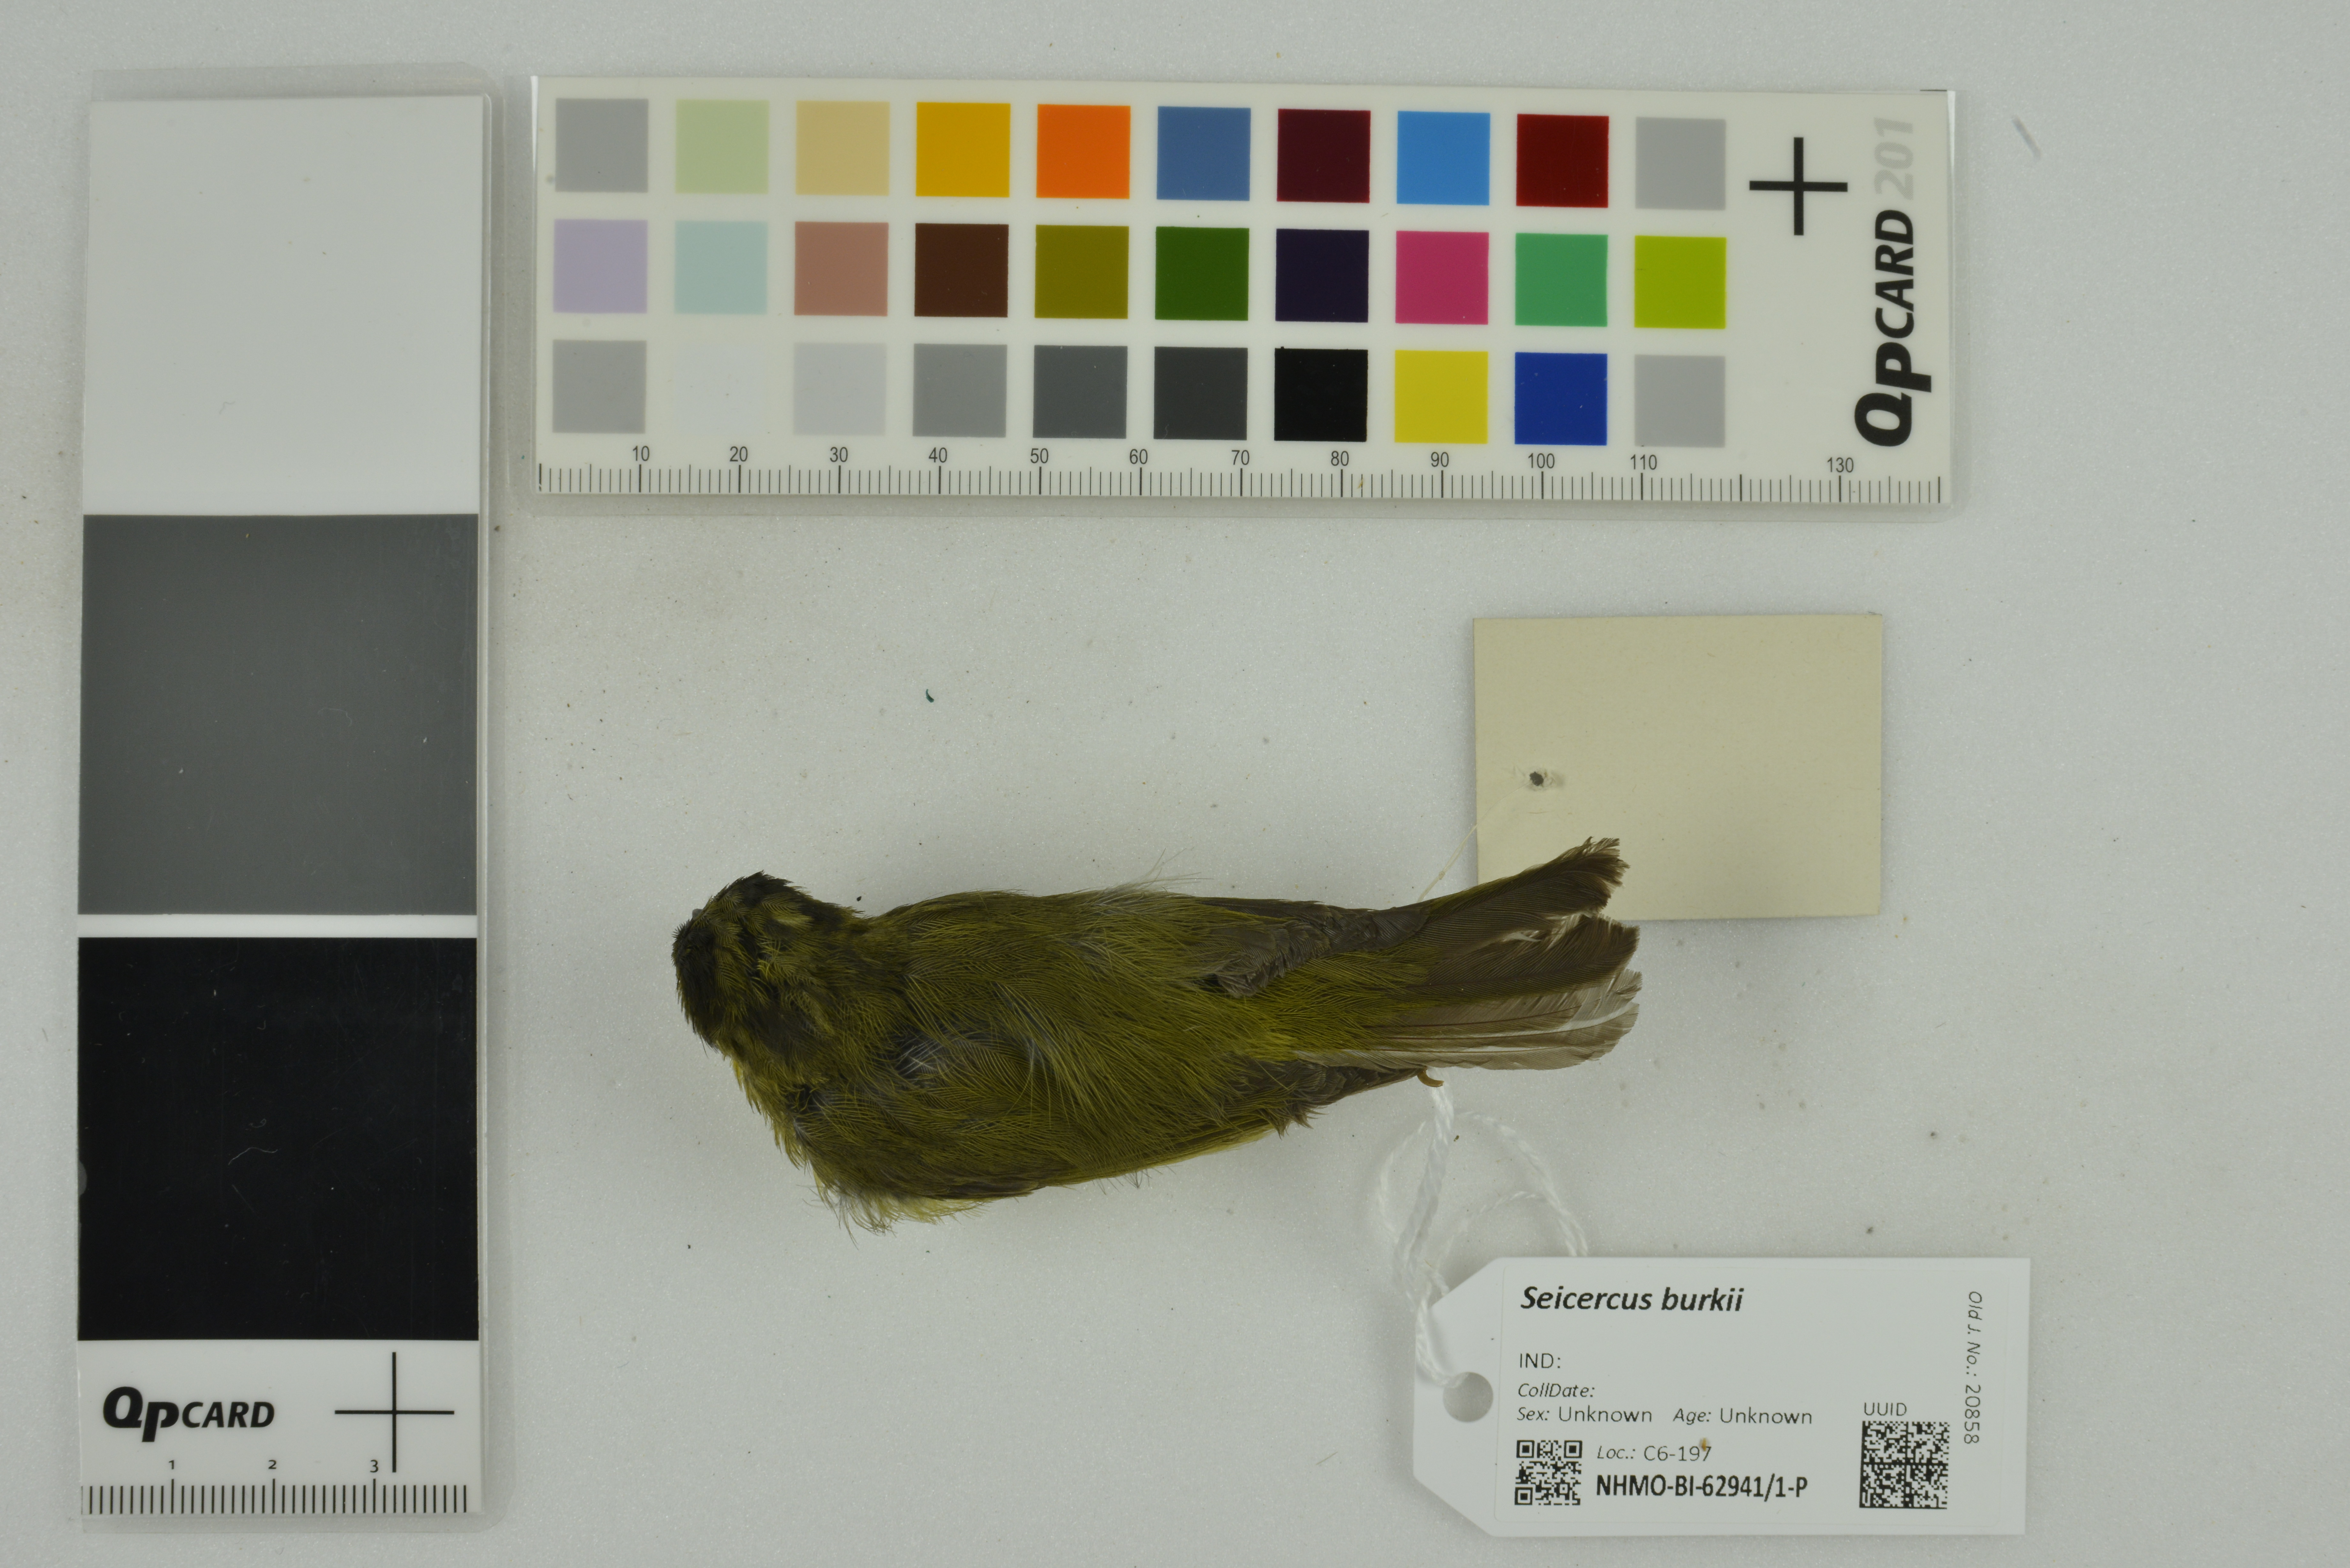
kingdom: Animalia
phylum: Chordata
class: Aves
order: Passeriformes
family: Phylloscopidae
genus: Seicercus
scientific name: Seicercus burkii
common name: Green-crowned warbler
